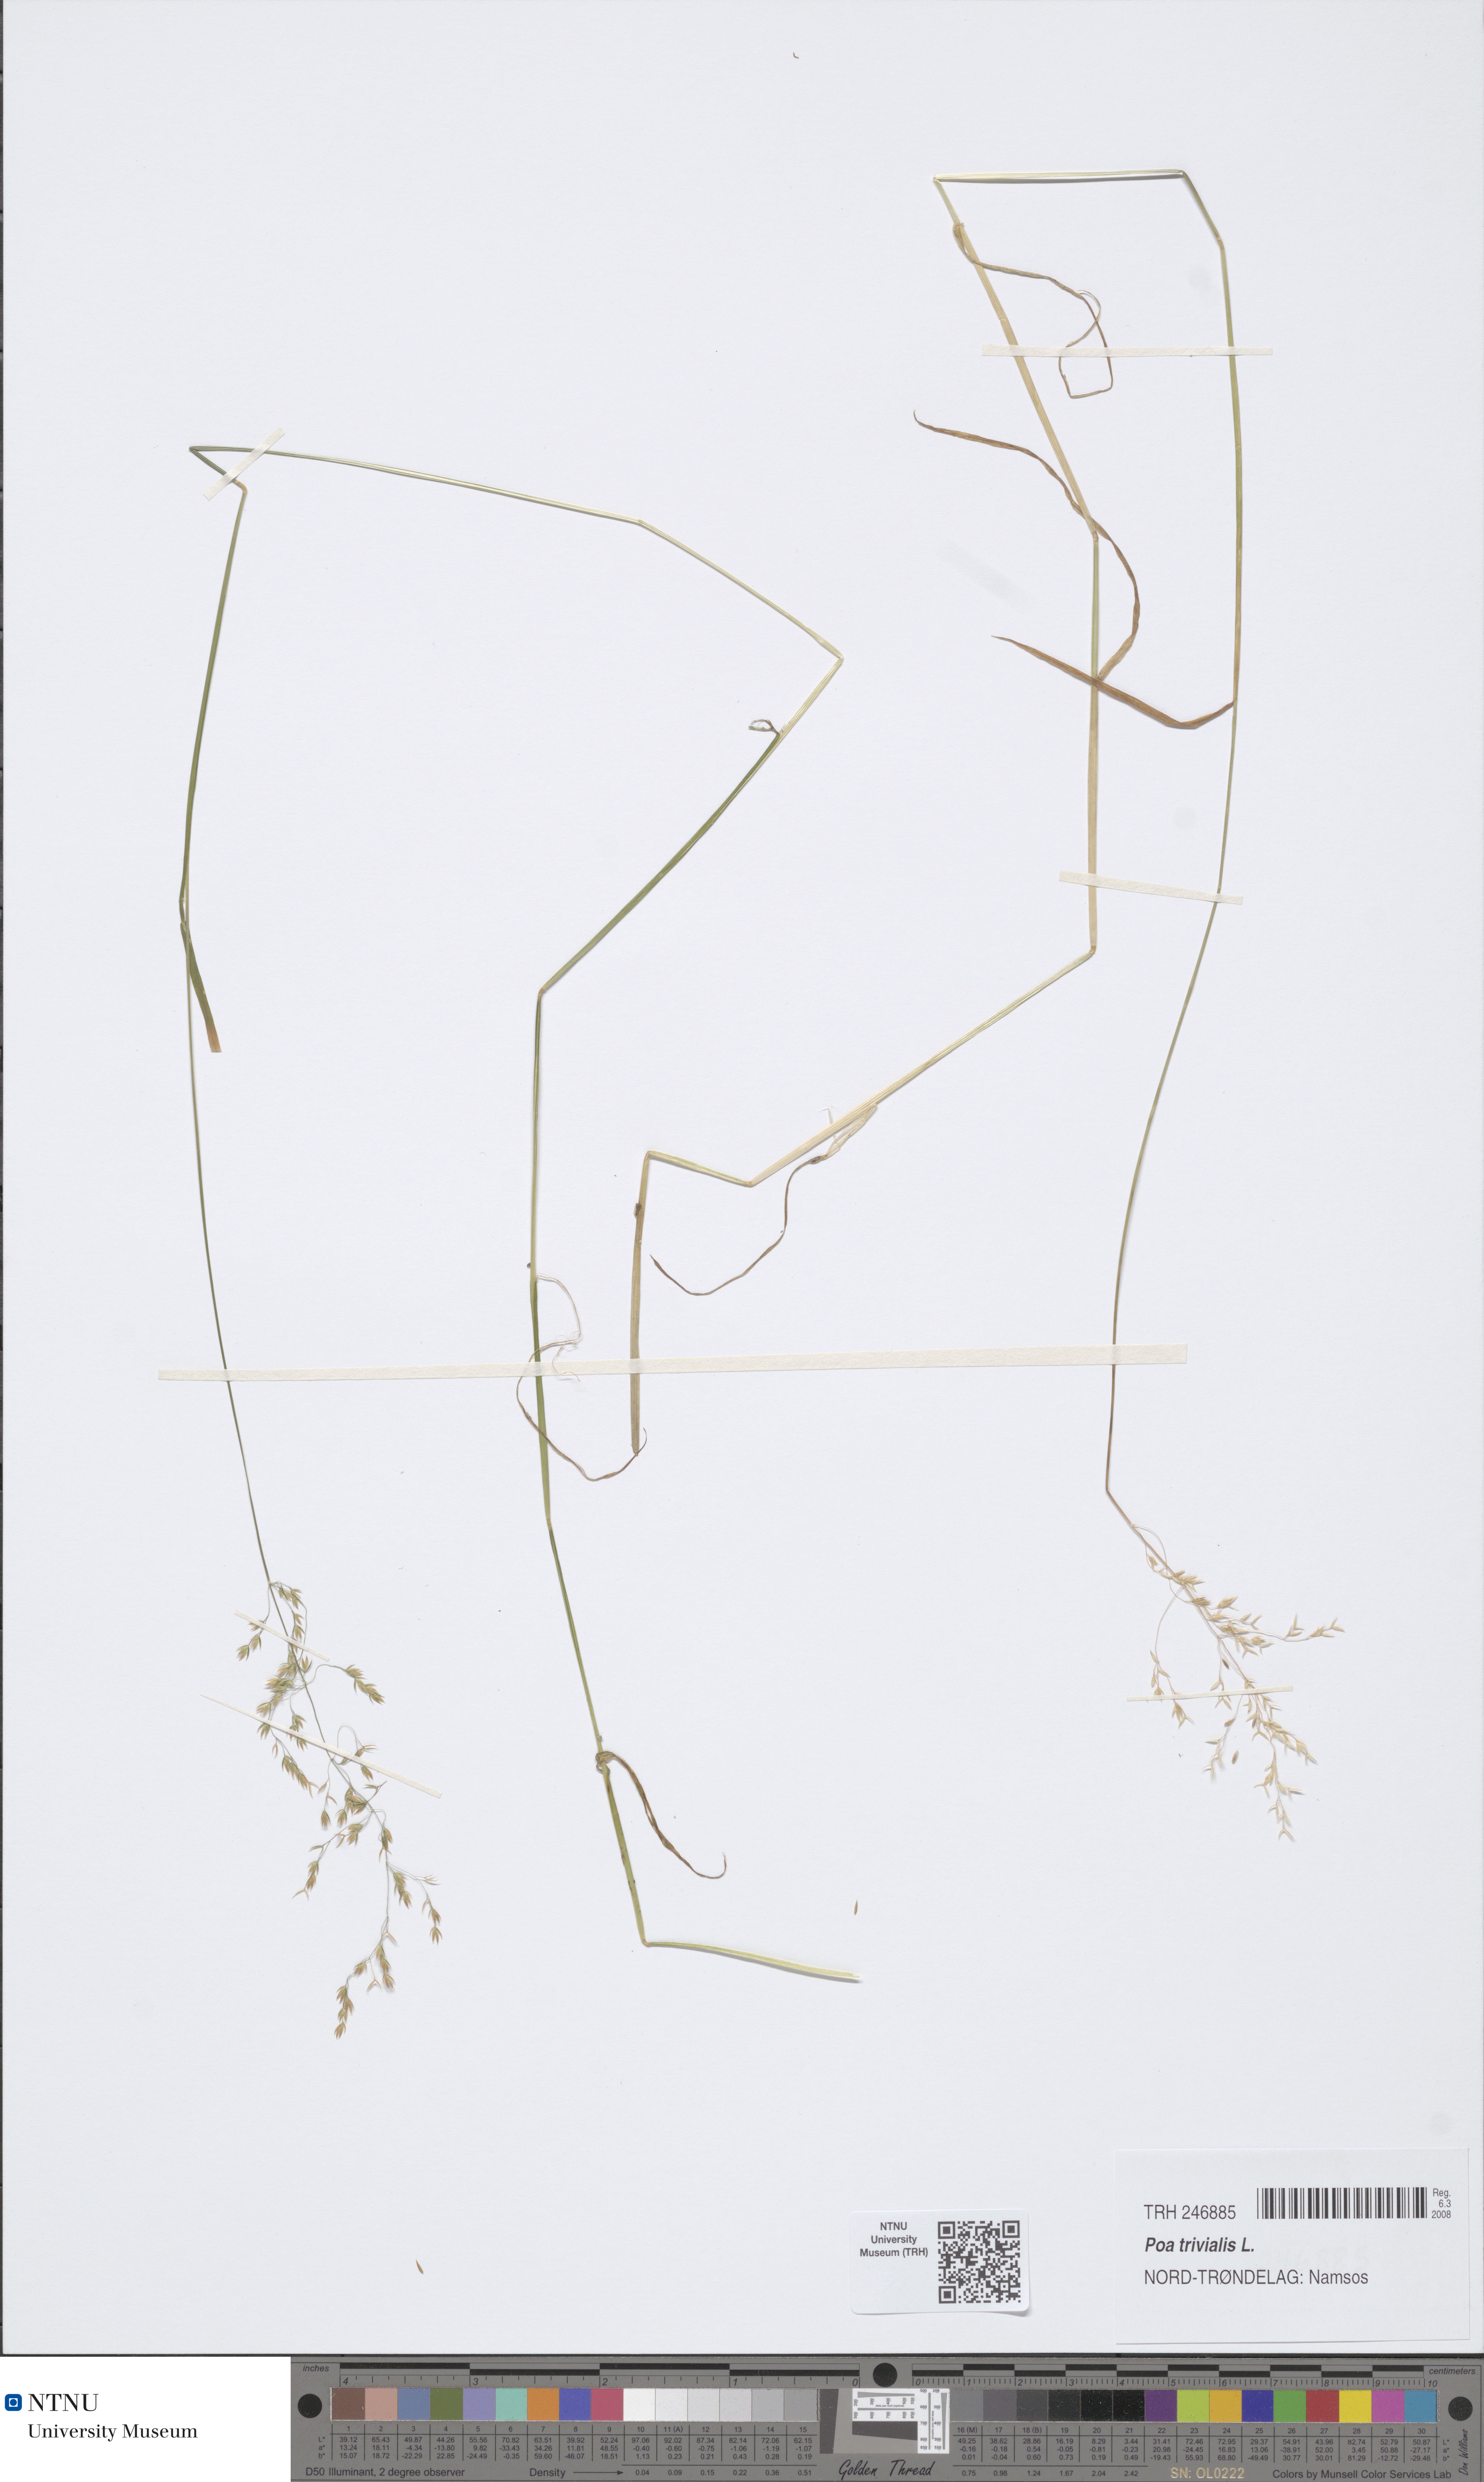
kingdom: Plantae
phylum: Tracheophyta
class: Liliopsida
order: Poales
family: Poaceae
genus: Poa
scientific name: Poa trivialis
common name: Rough bluegrass
